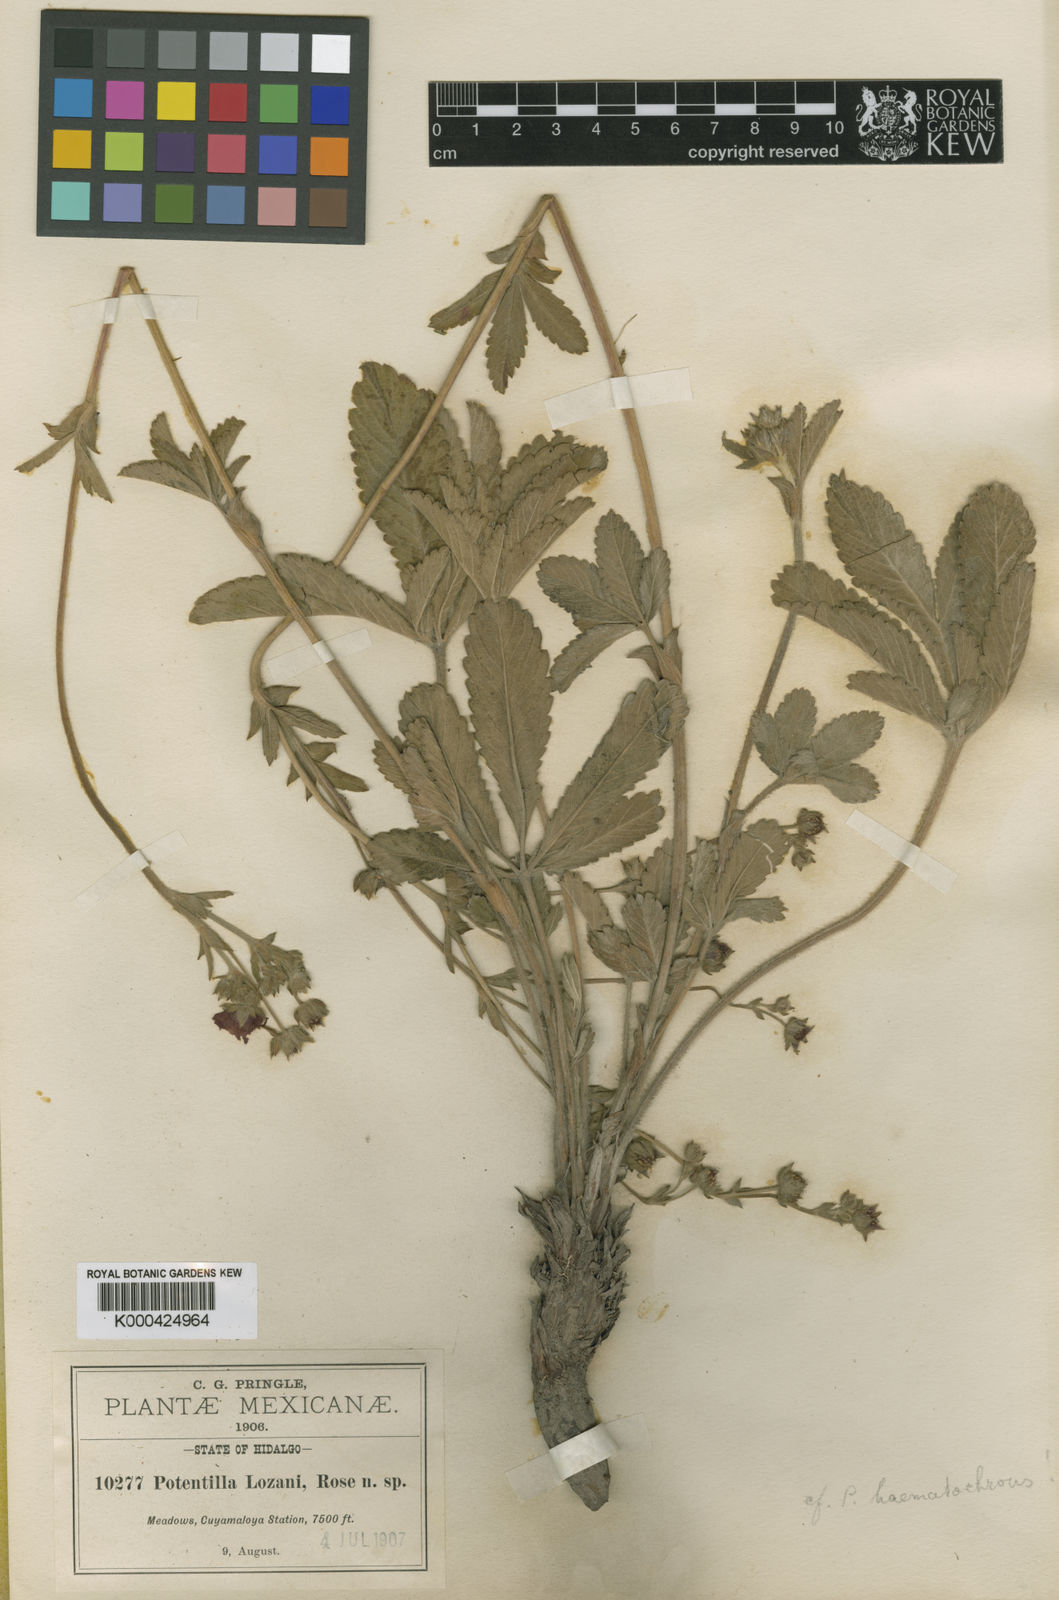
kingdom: Plantae
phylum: Tracheophyta
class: Magnoliopsida
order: Rosales
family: Rosaceae
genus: Potentilla
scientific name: Potentilla
